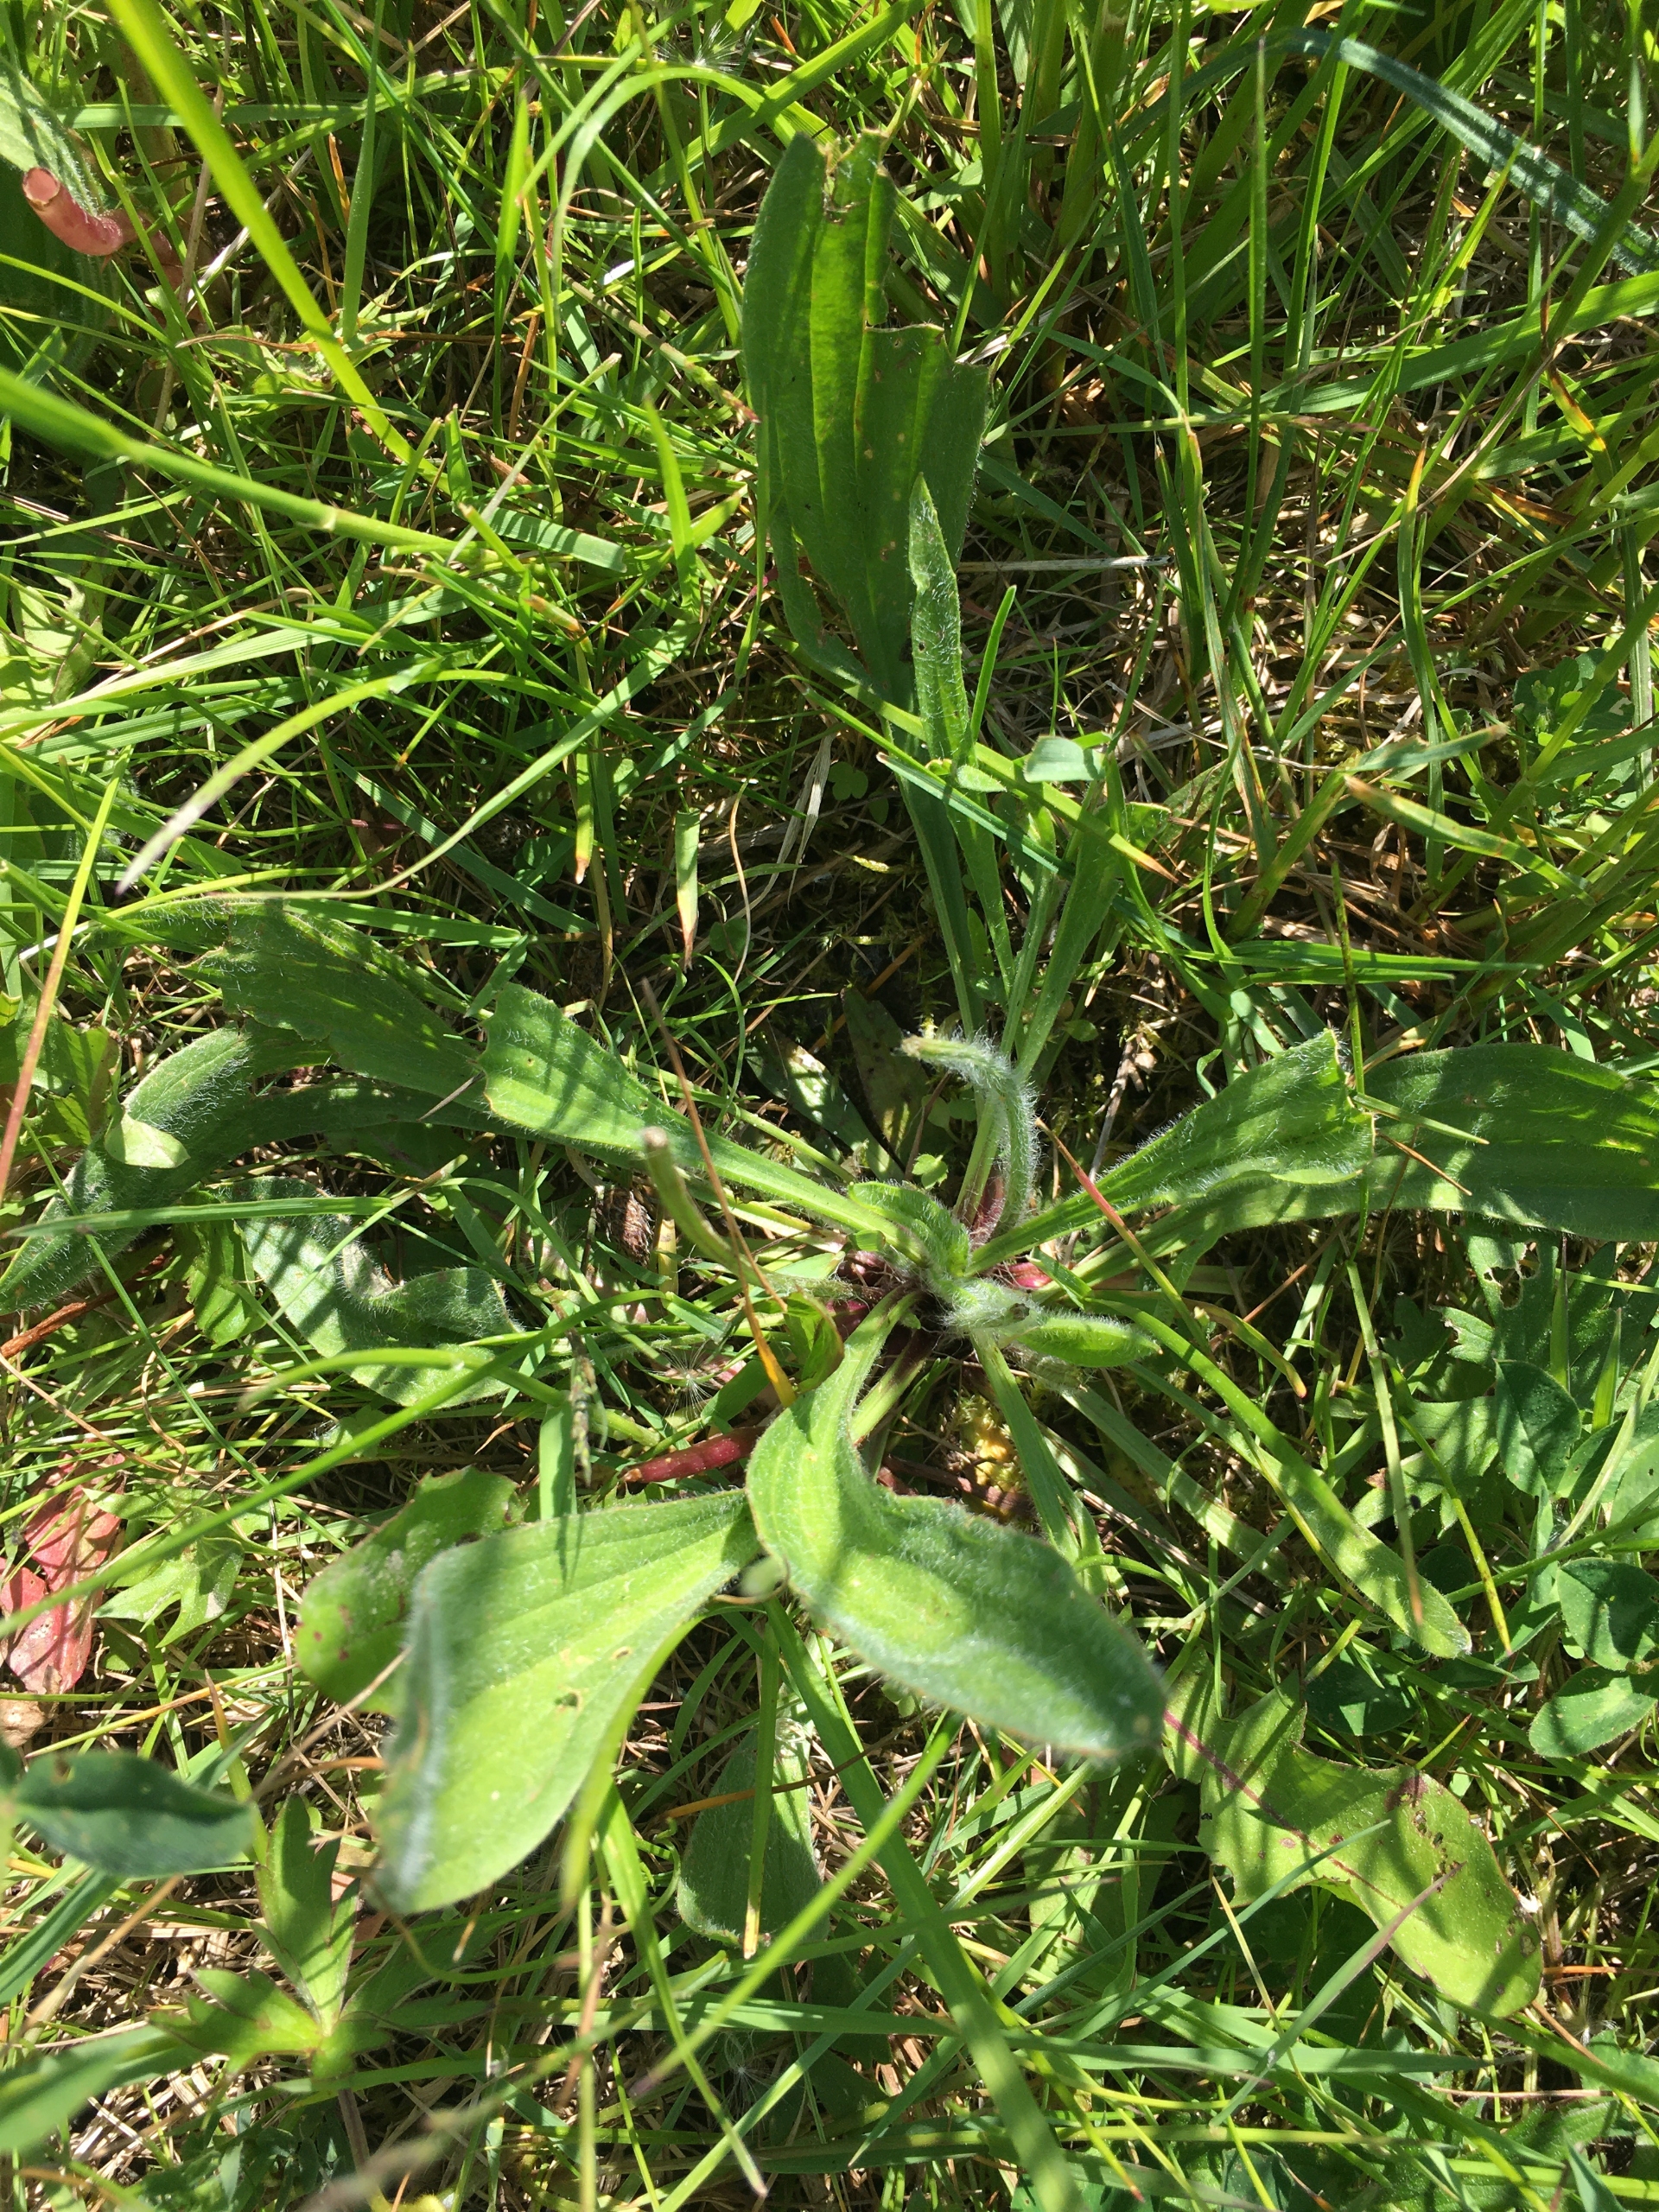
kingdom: Plantae
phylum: Tracheophyta
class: Magnoliopsida
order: Lamiales
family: Plantaginaceae
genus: Plantago
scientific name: Plantago lanceolata
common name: Lancet-vejbred
